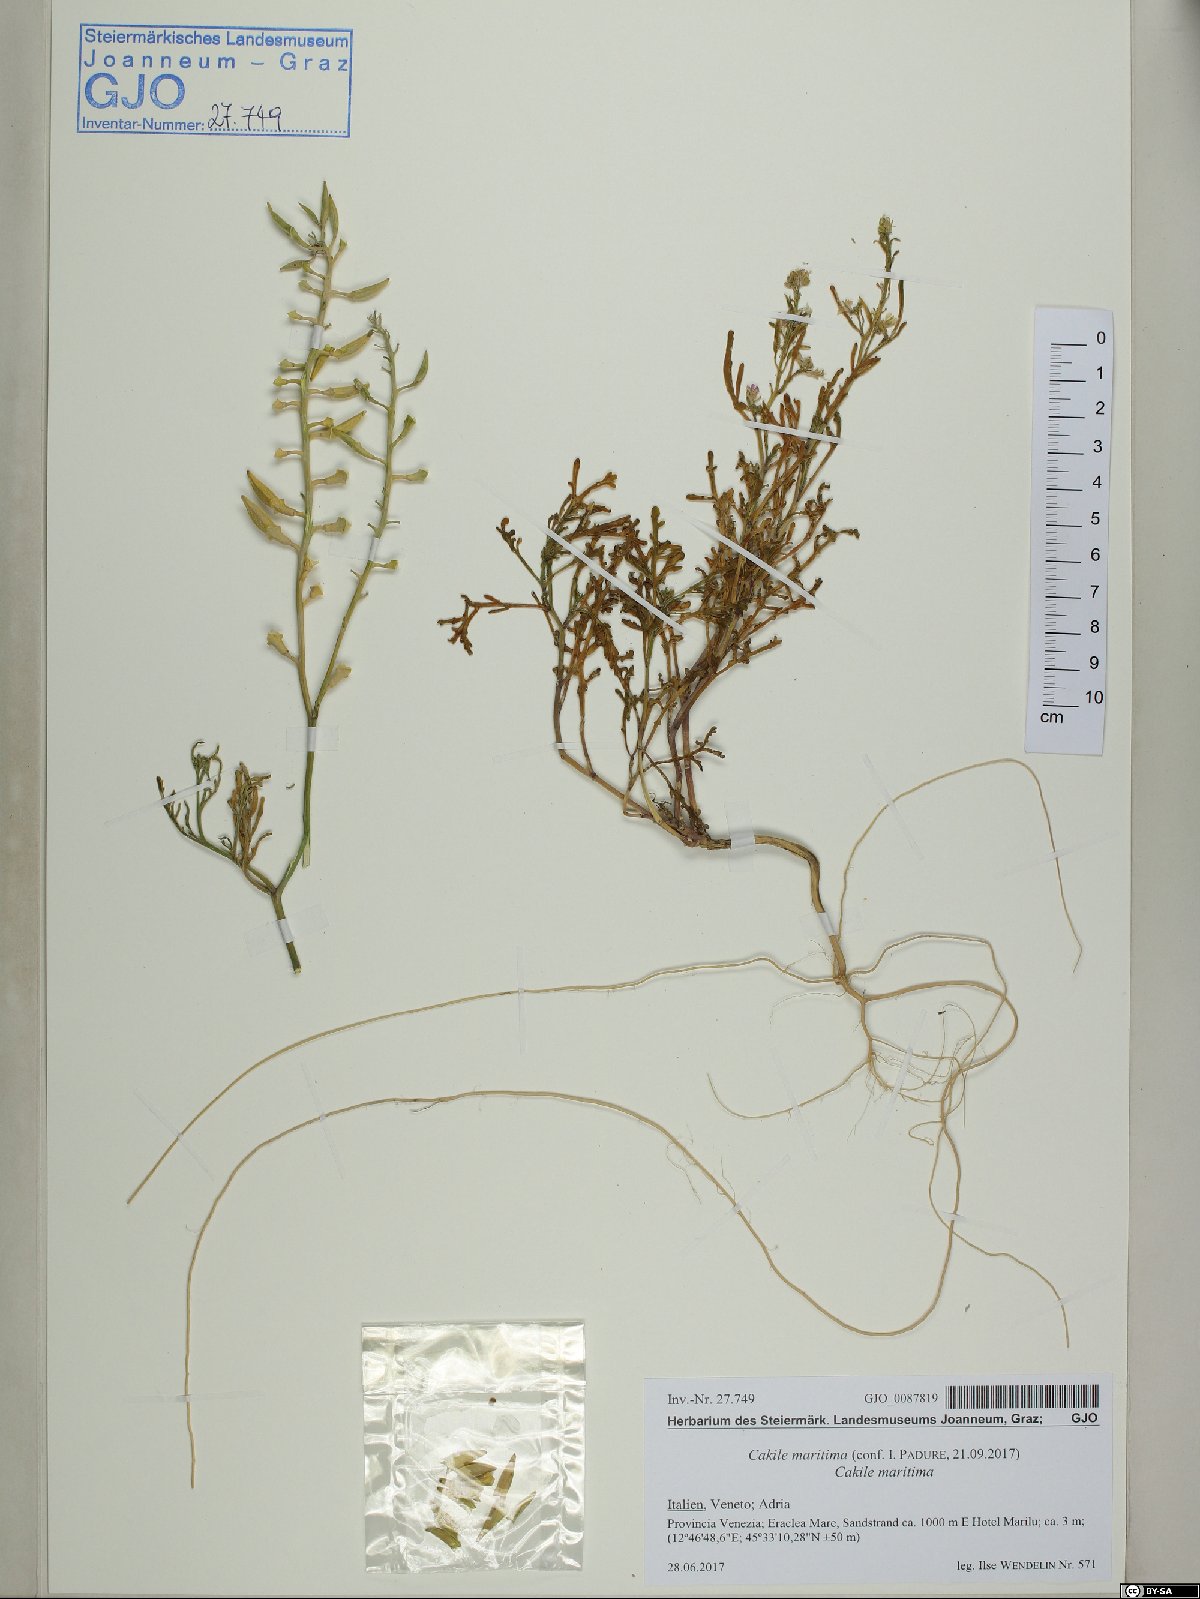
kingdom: Plantae
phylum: Tracheophyta
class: Magnoliopsida
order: Brassicales
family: Brassicaceae
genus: Cakile
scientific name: Cakile maritima
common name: Sea rocket
